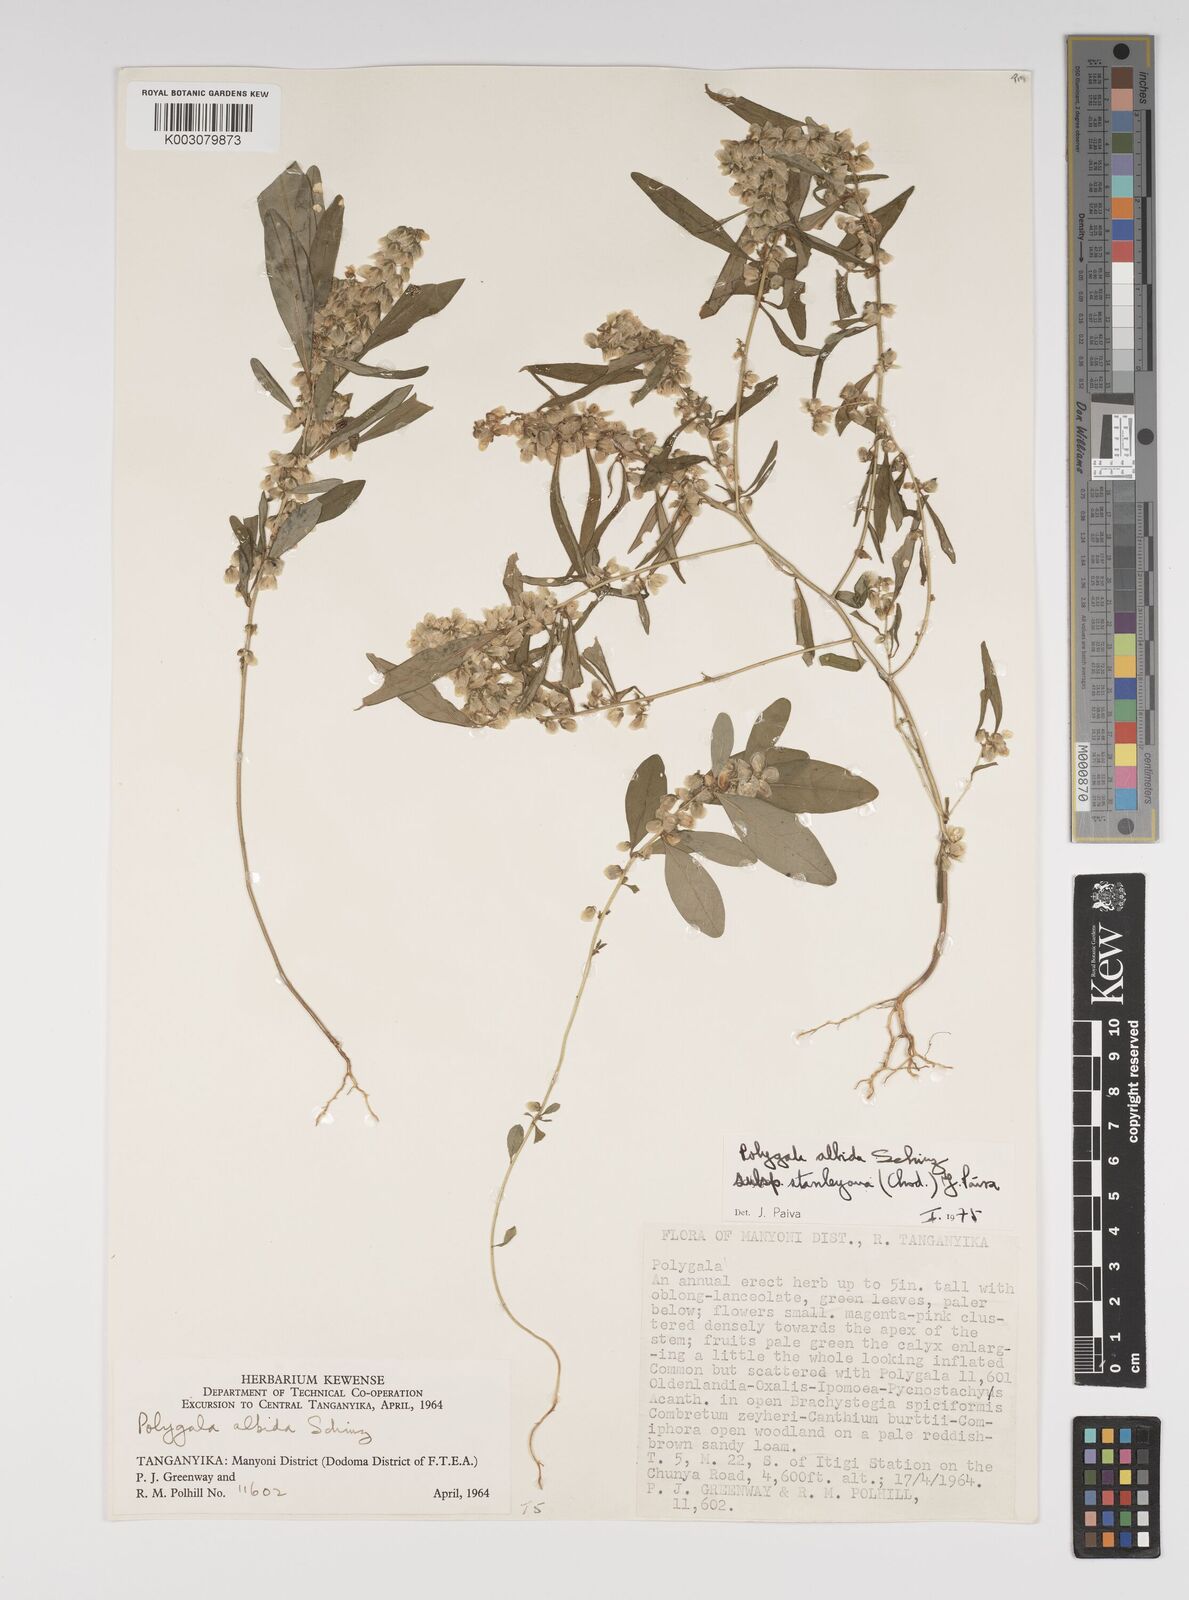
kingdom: Plantae
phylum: Tracheophyta
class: Magnoliopsida
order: Fabales
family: Polygalaceae
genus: Polygala
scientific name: Polygala albida
